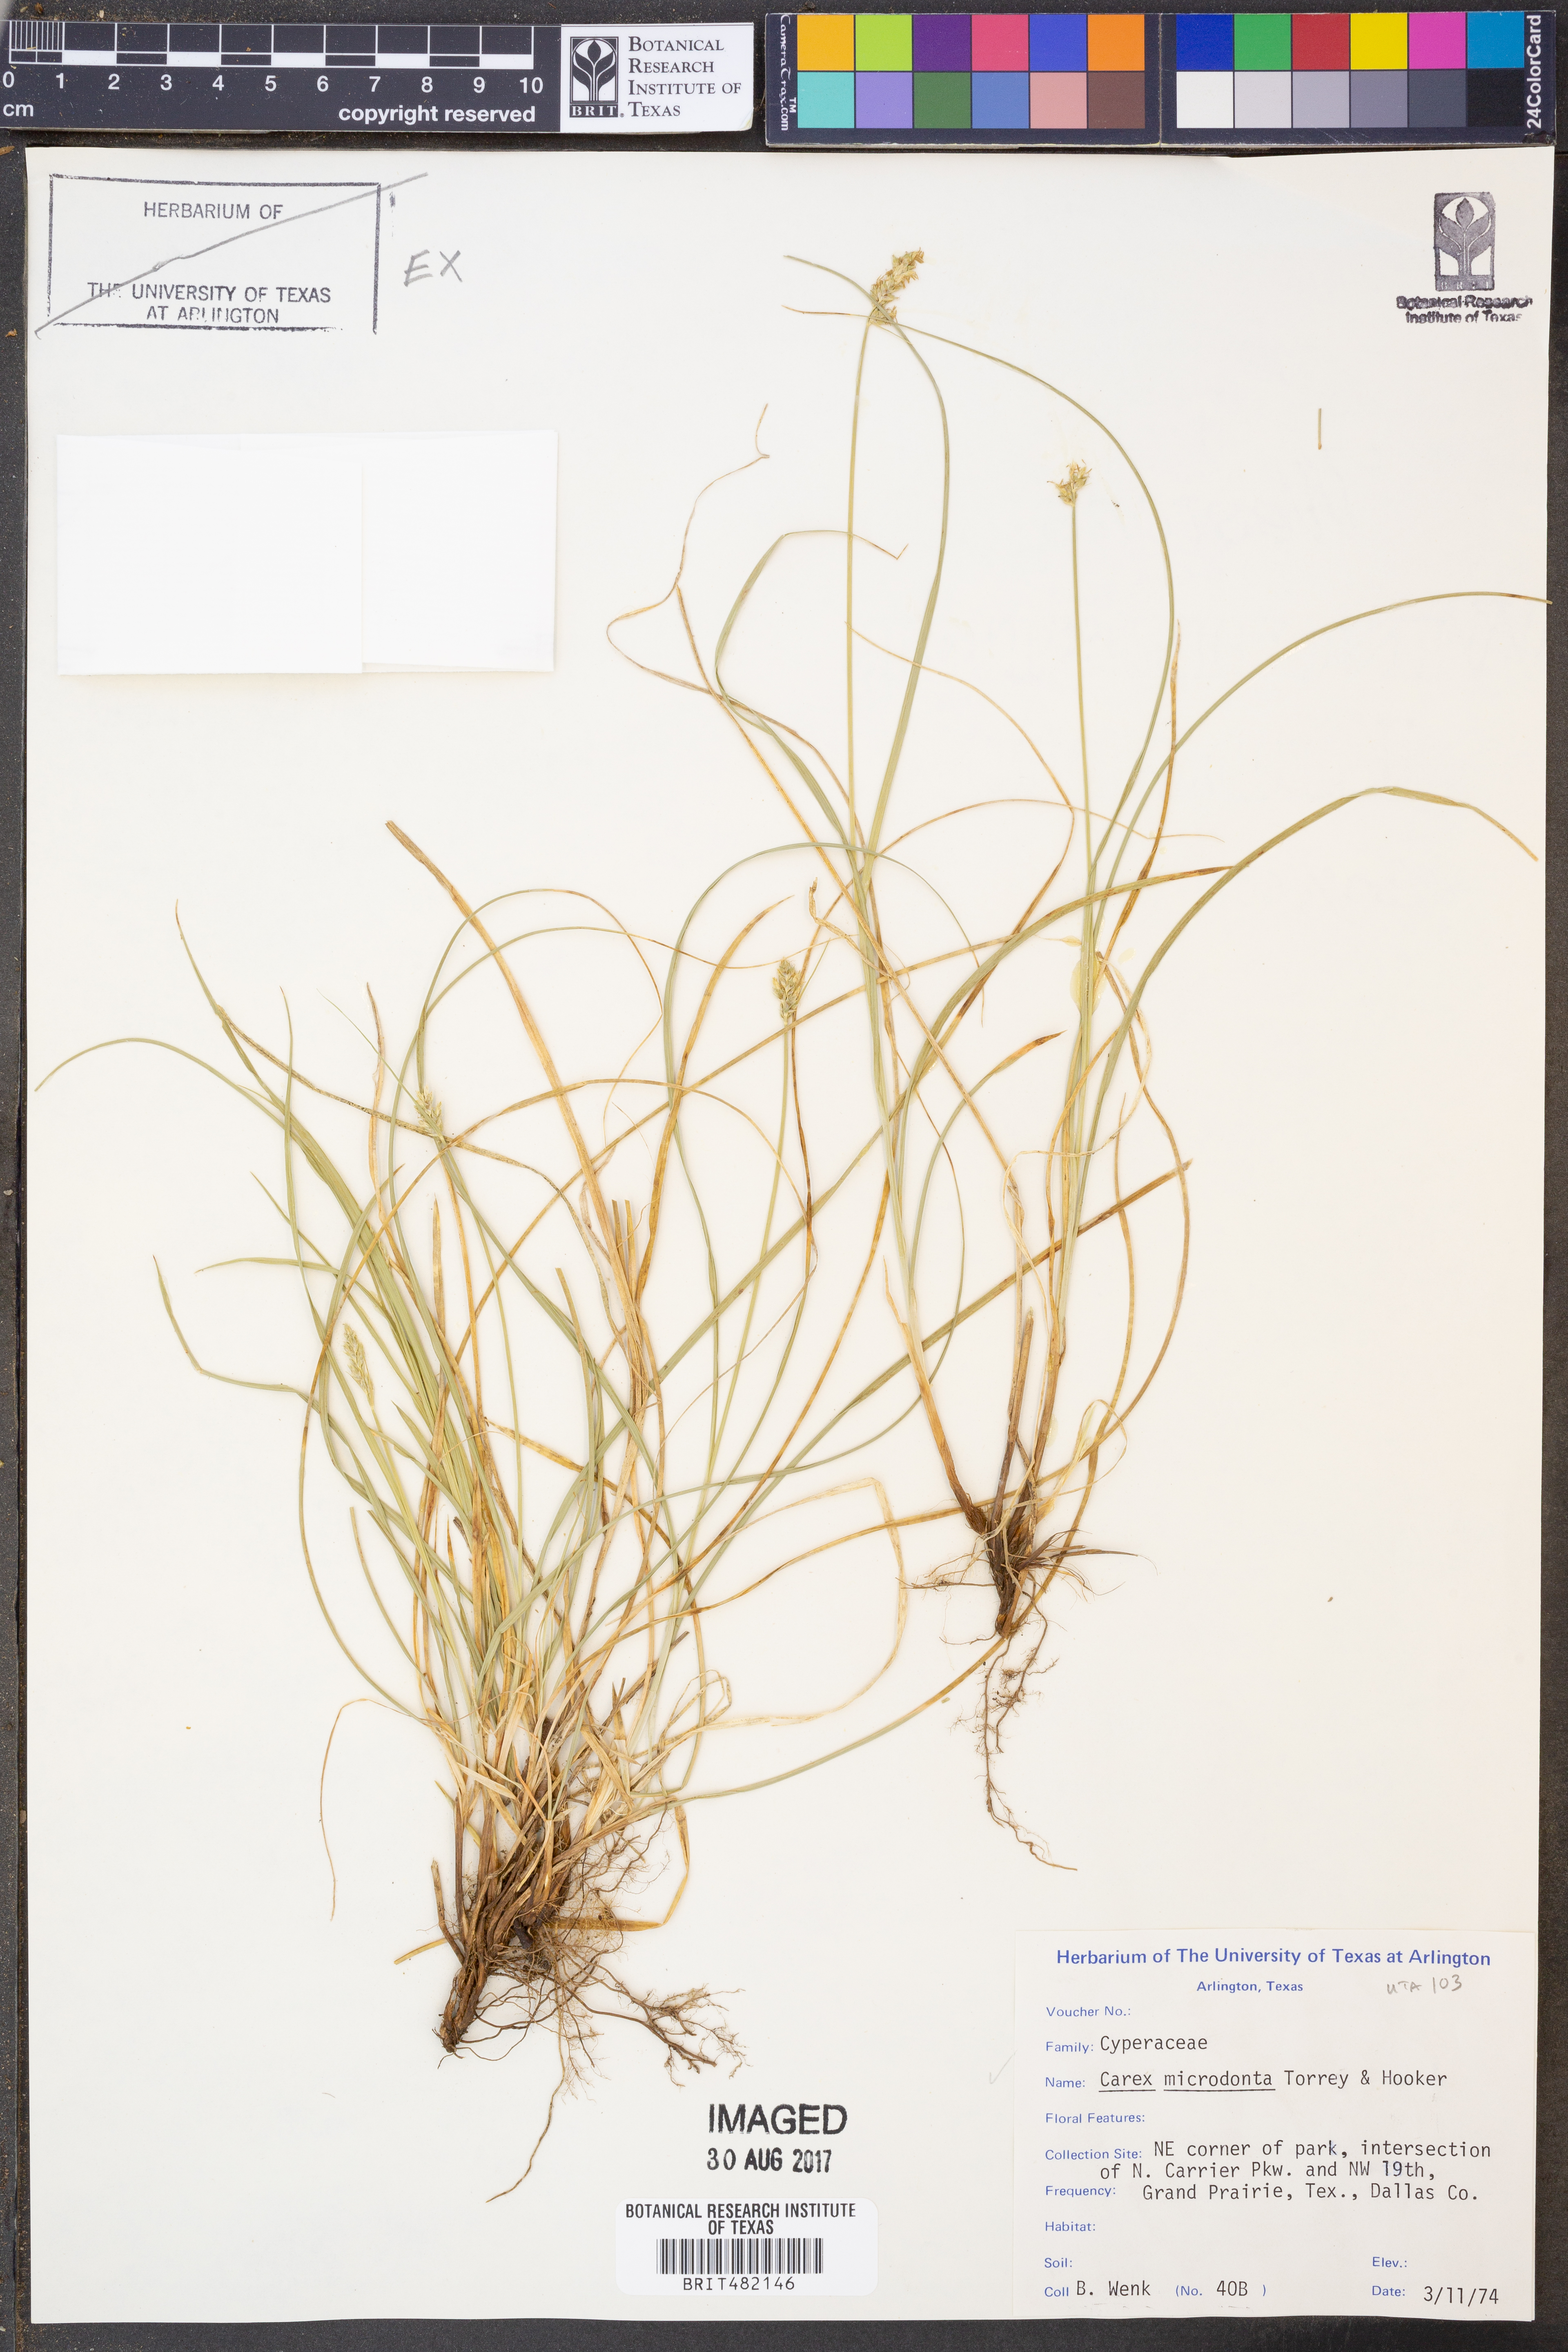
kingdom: Plantae
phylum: Tracheophyta
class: Liliopsida
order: Poales
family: Cyperaceae
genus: Carex
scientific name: Carex microdonta
